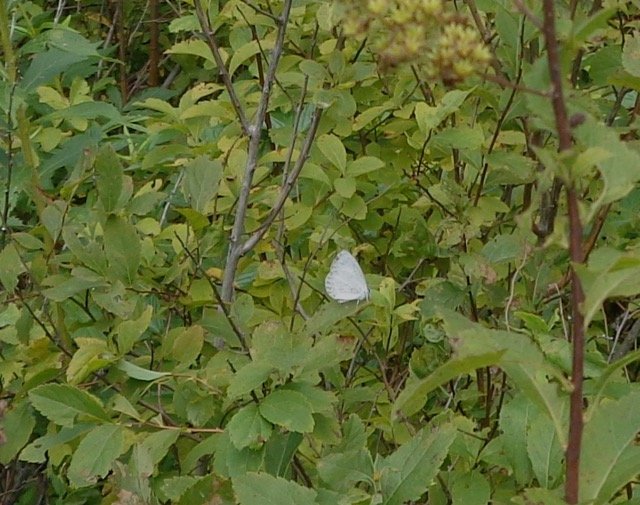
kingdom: Animalia
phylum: Arthropoda
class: Insecta
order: Lepidoptera
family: Lycaenidae
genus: Cyaniris
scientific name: Cyaniris neglecta
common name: Summer Azure
